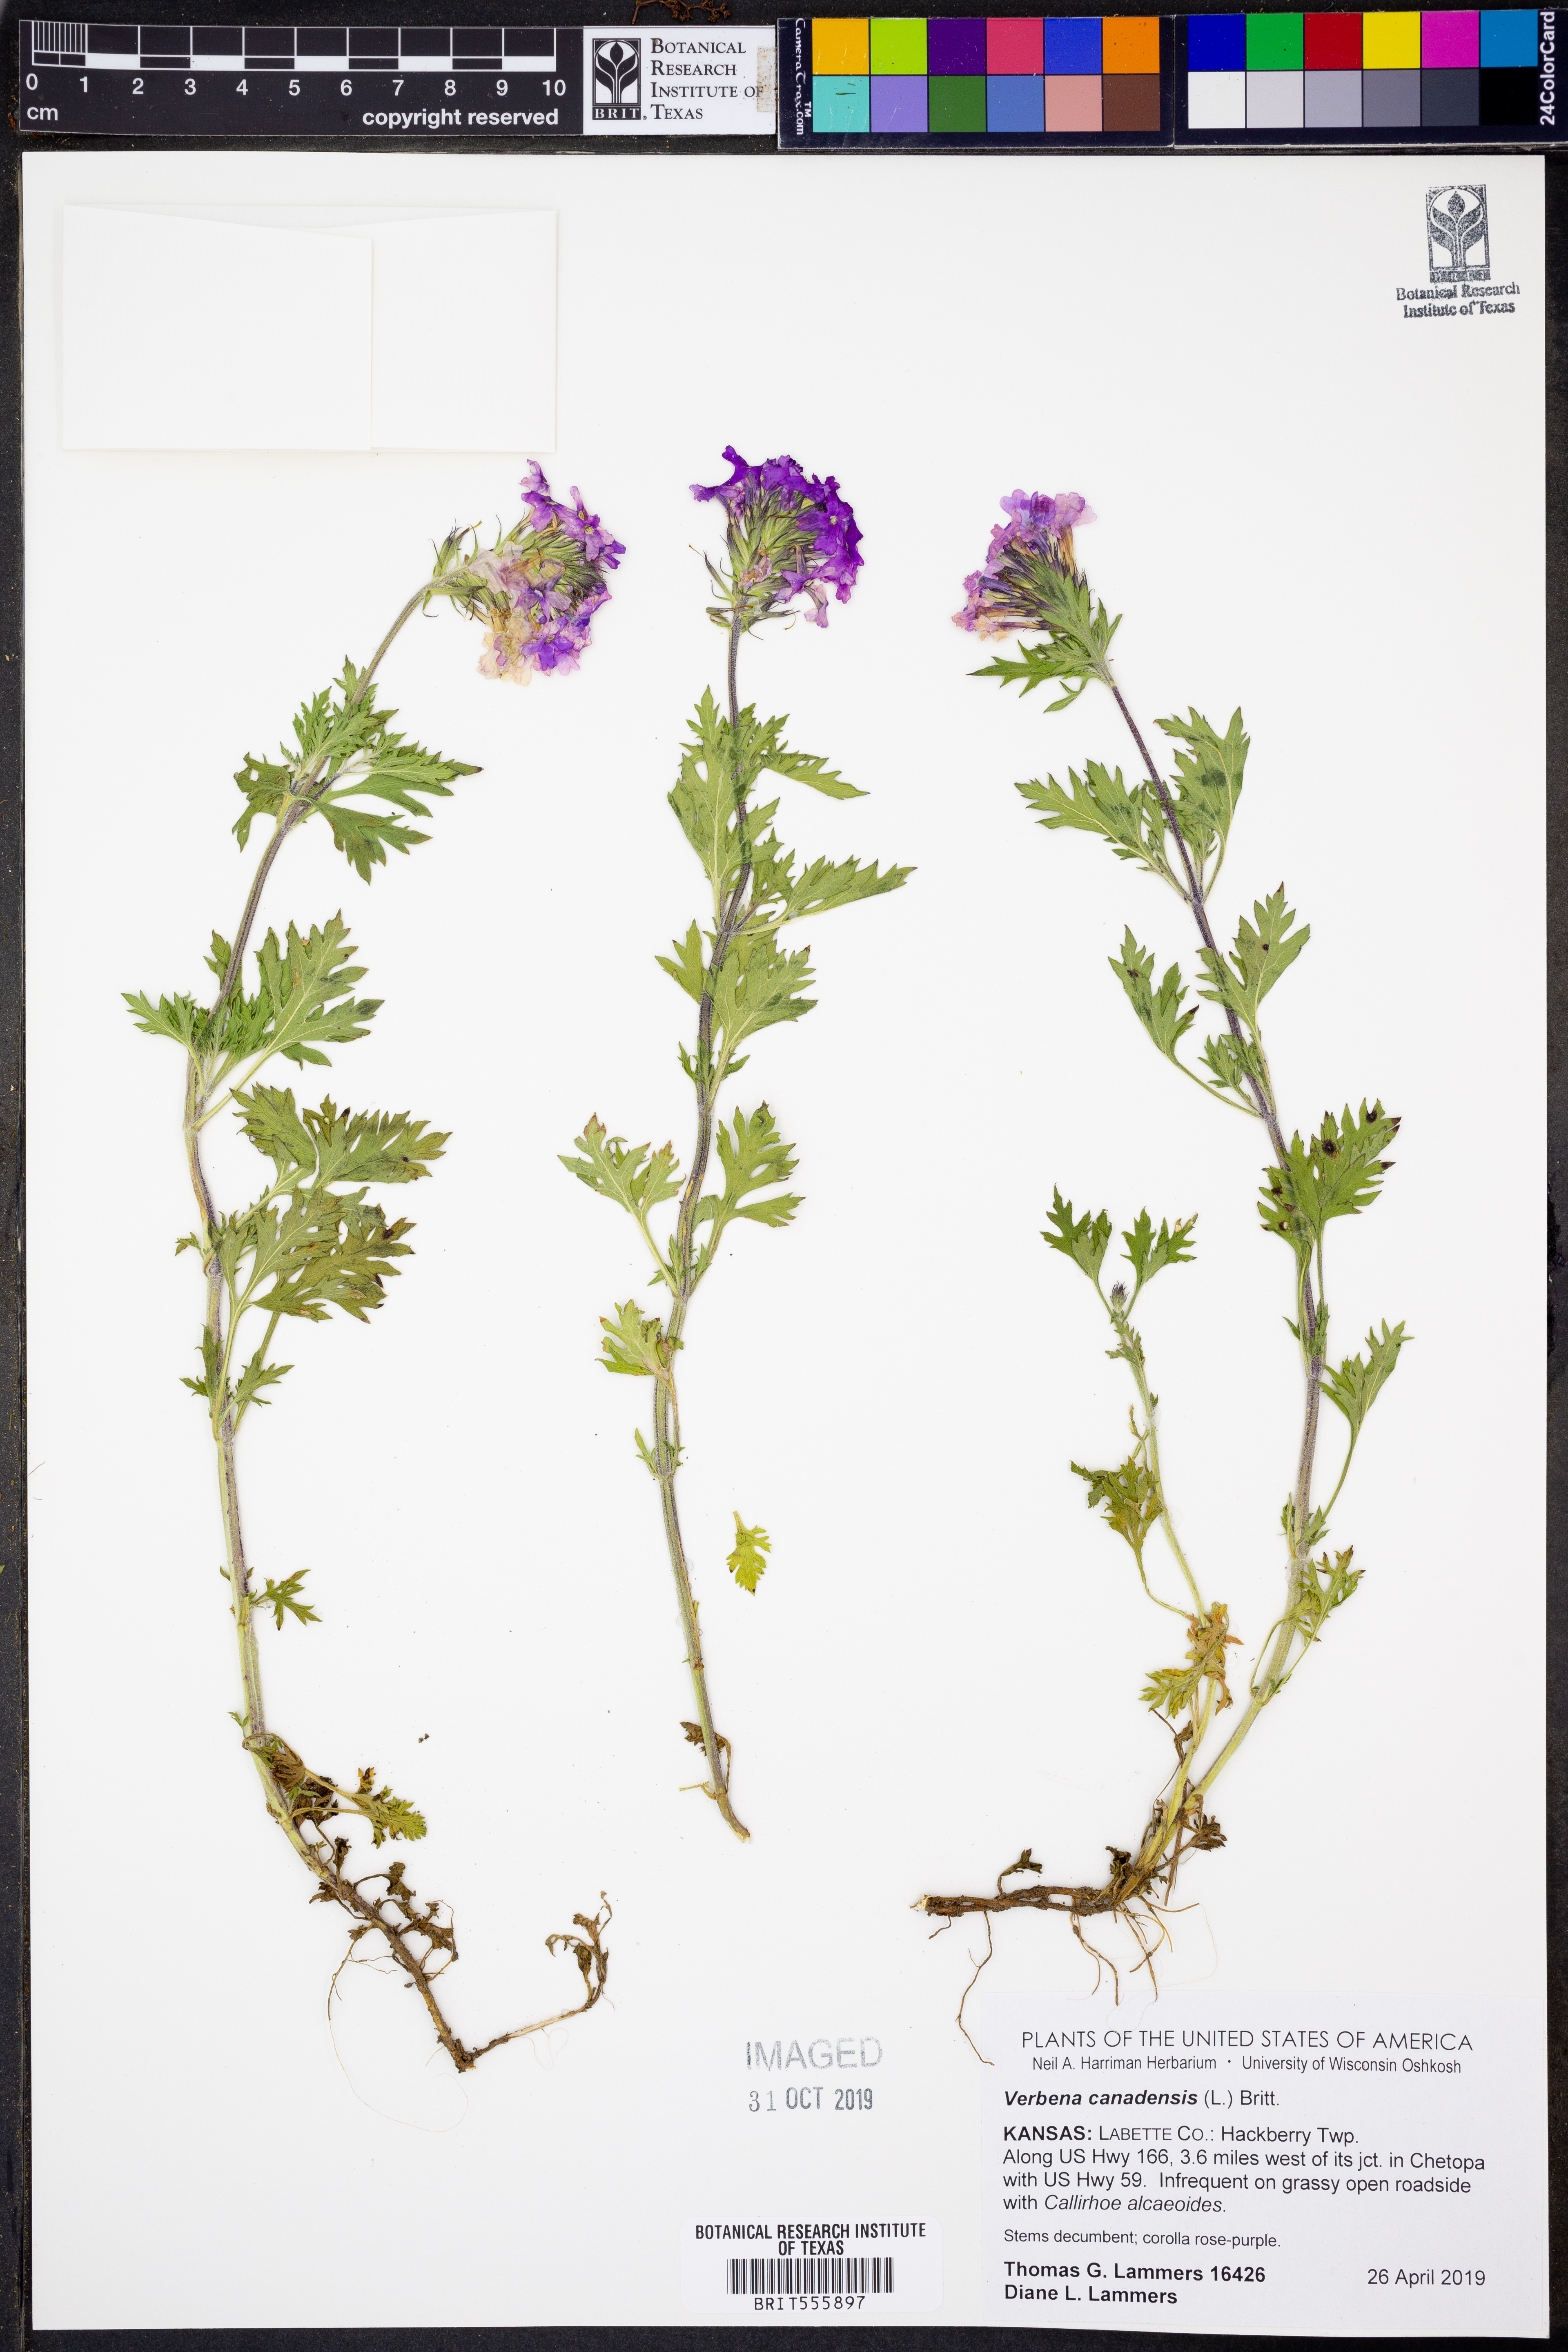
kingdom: Plantae
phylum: Tracheophyta
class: Magnoliopsida
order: Lamiales
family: Verbenaceae
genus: Verbena
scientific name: Verbena canadensis
